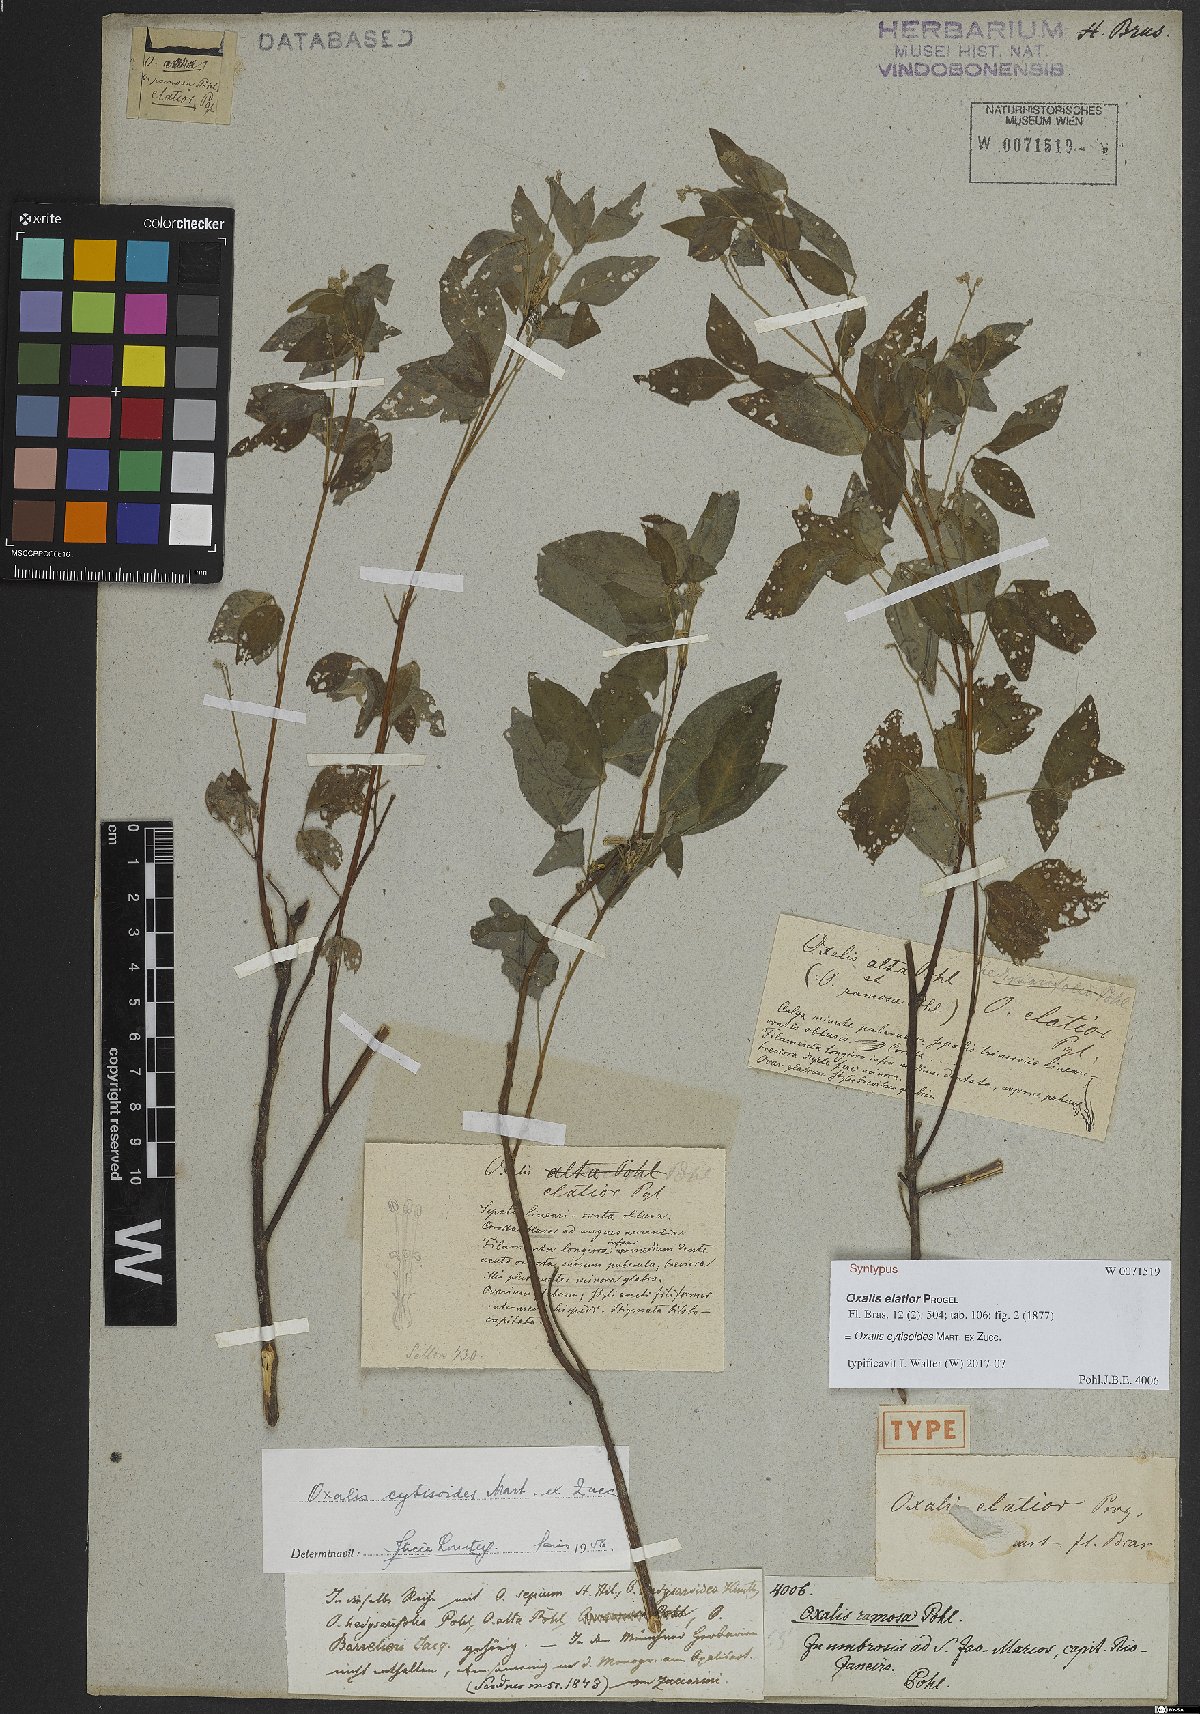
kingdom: Plantae
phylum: Tracheophyta
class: Magnoliopsida
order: Oxalidales
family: Oxalidaceae
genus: Oxalis
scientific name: Oxalis cytisoides
